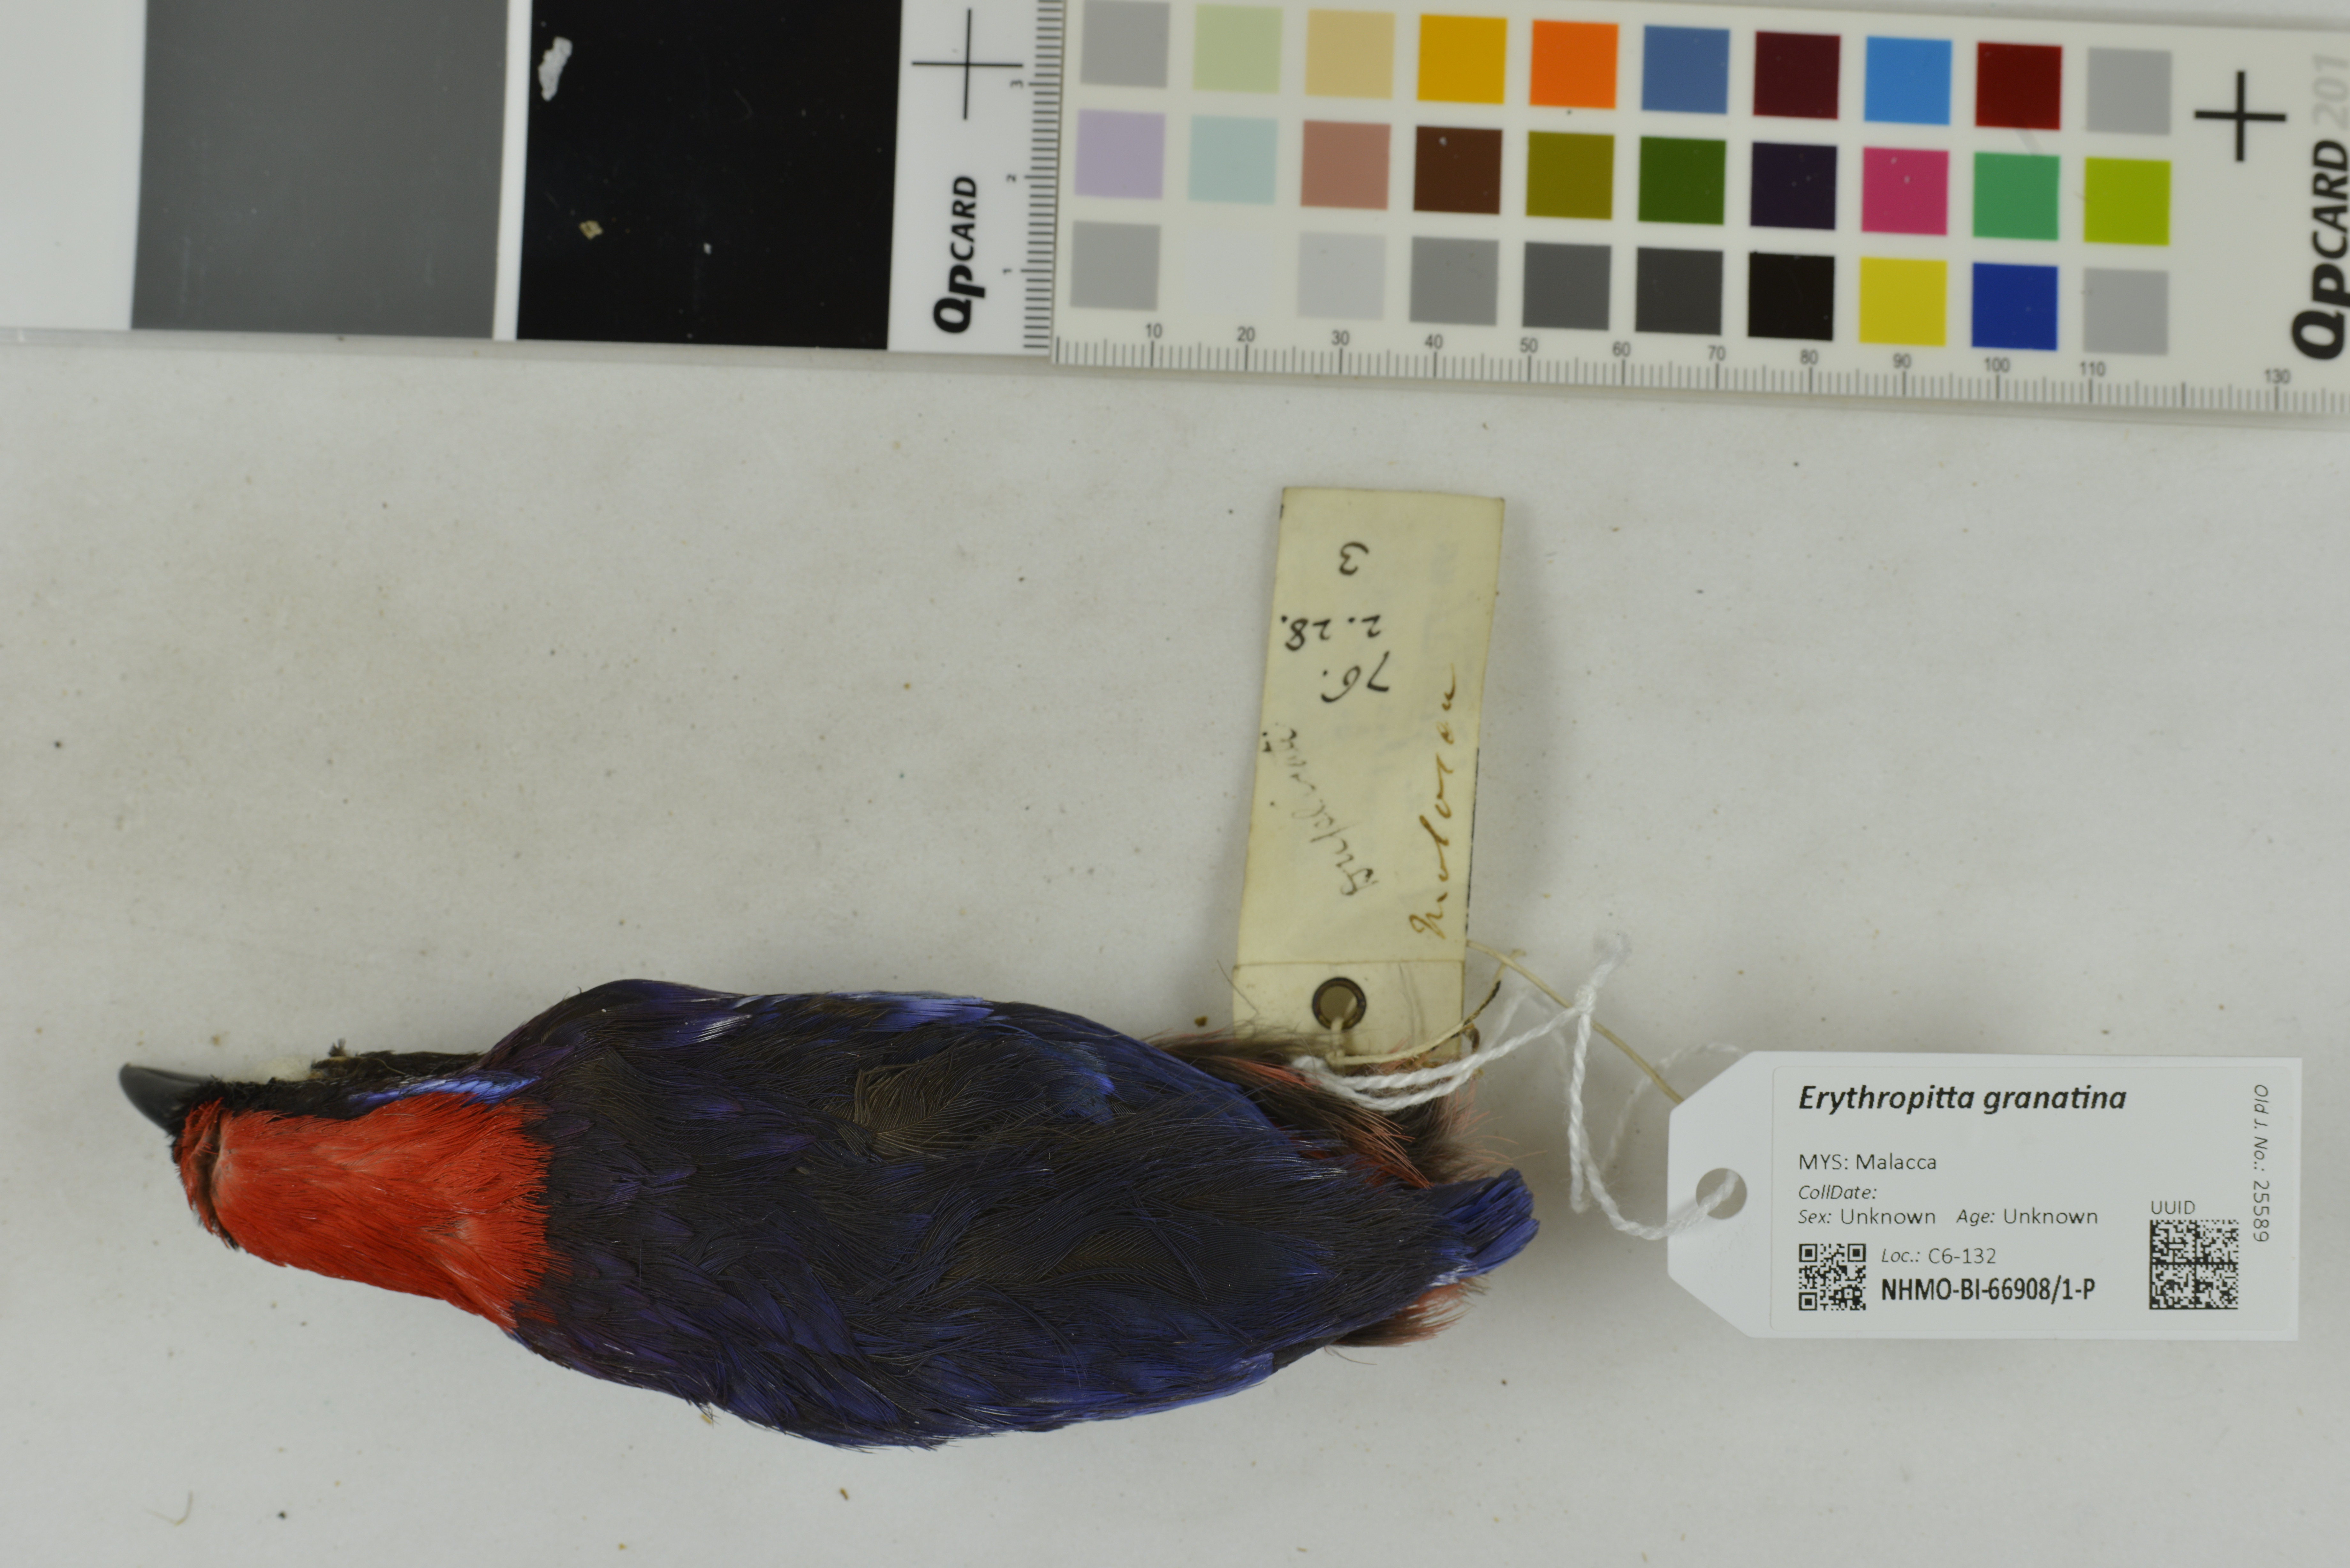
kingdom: Animalia
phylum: Chordata
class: Aves
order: Passeriformes
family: Pittidae
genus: Pitta
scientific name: Pitta granatina
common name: Garnet pitta
